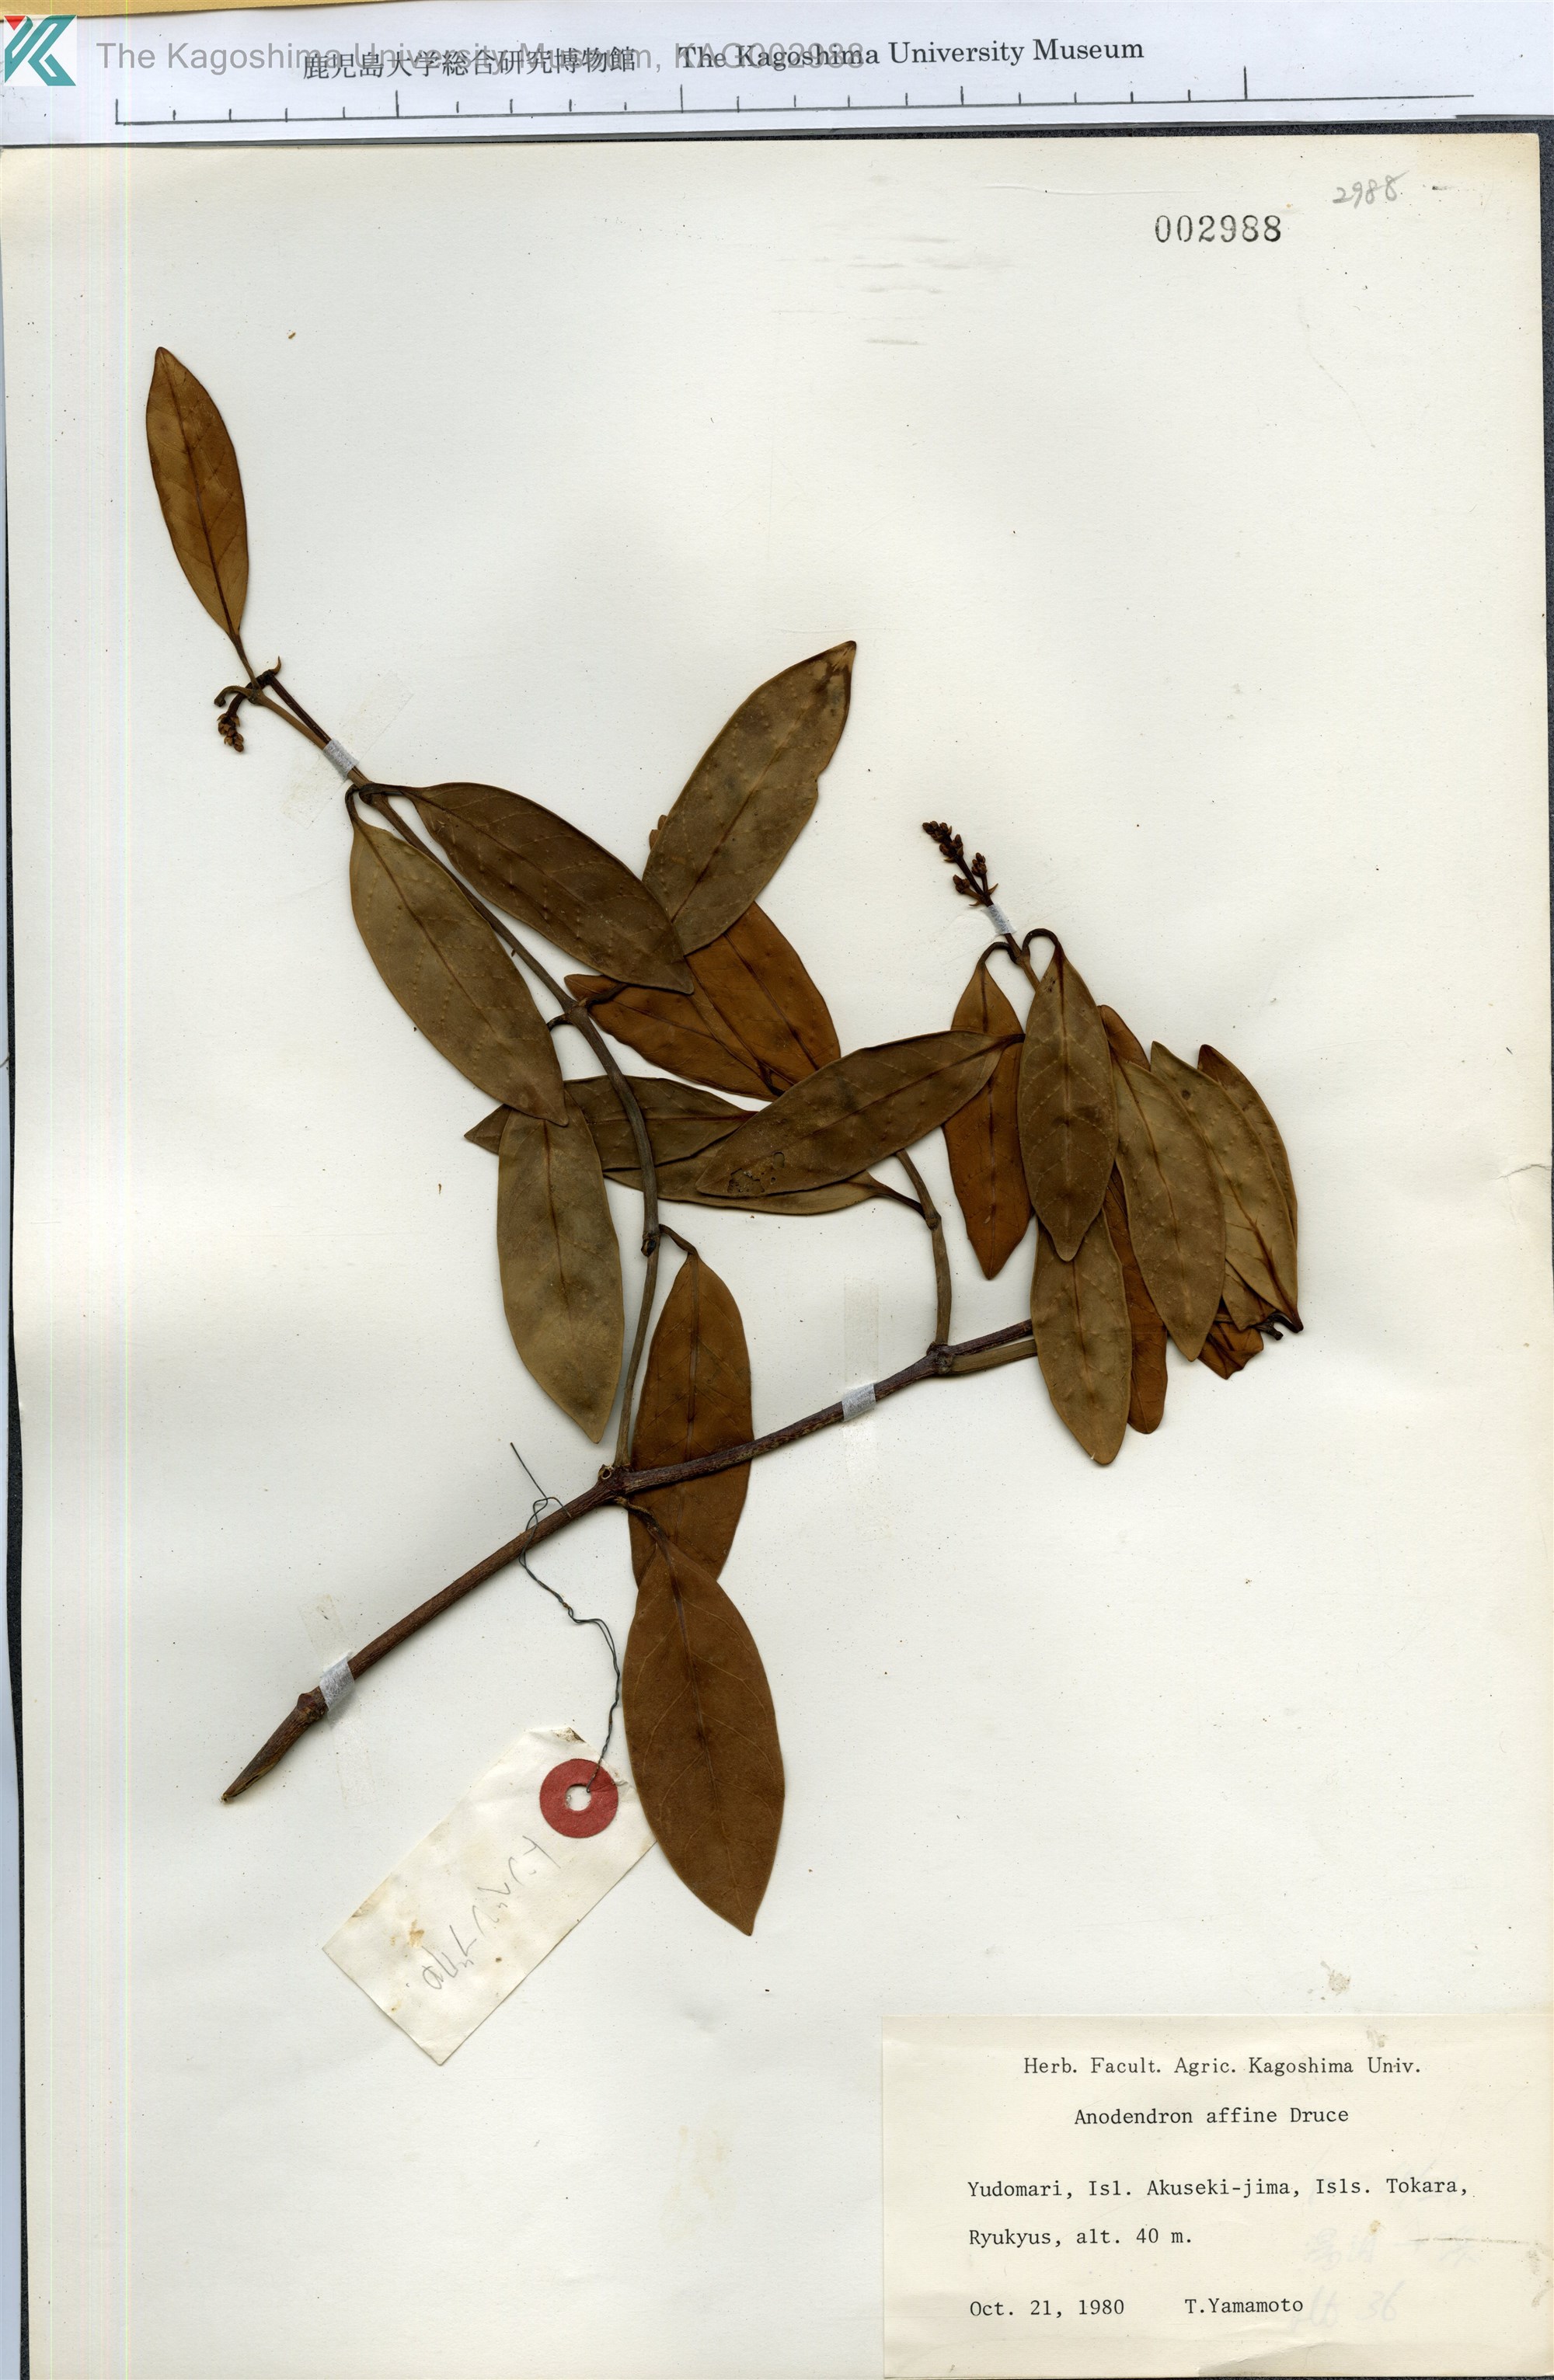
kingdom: Plantae
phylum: Tracheophyta
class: Magnoliopsida
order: Gentianales
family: Apocynaceae
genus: Anodendron
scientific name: Anodendron affine
